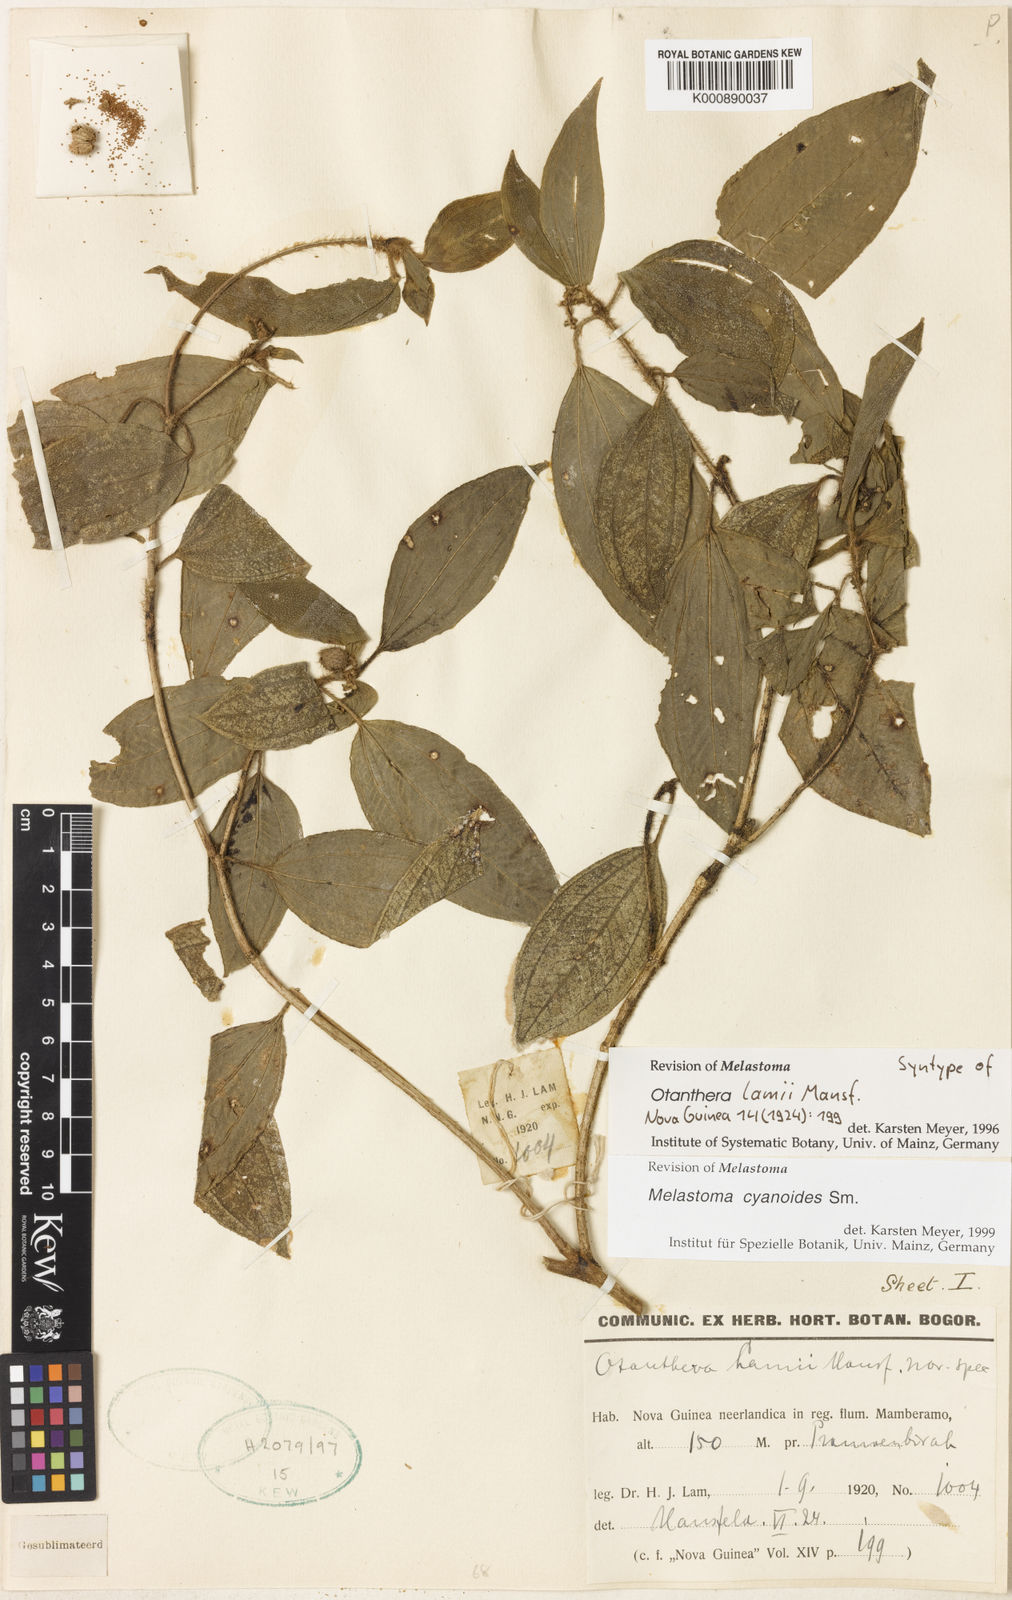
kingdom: Plantae
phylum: Tracheophyta
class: Magnoliopsida
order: Myrtales
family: Melastomataceae
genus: Melastoma
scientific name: Melastoma cyanoides
